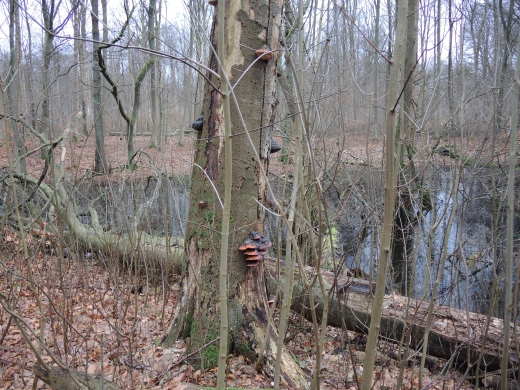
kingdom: Fungi
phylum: Basidiomycota
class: Agaricomycetes
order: Polyporales
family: Fomitopsidaceae
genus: Fomitopsis
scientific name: Fomitopsis pinicola
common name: randbæltet hovporesvamp
